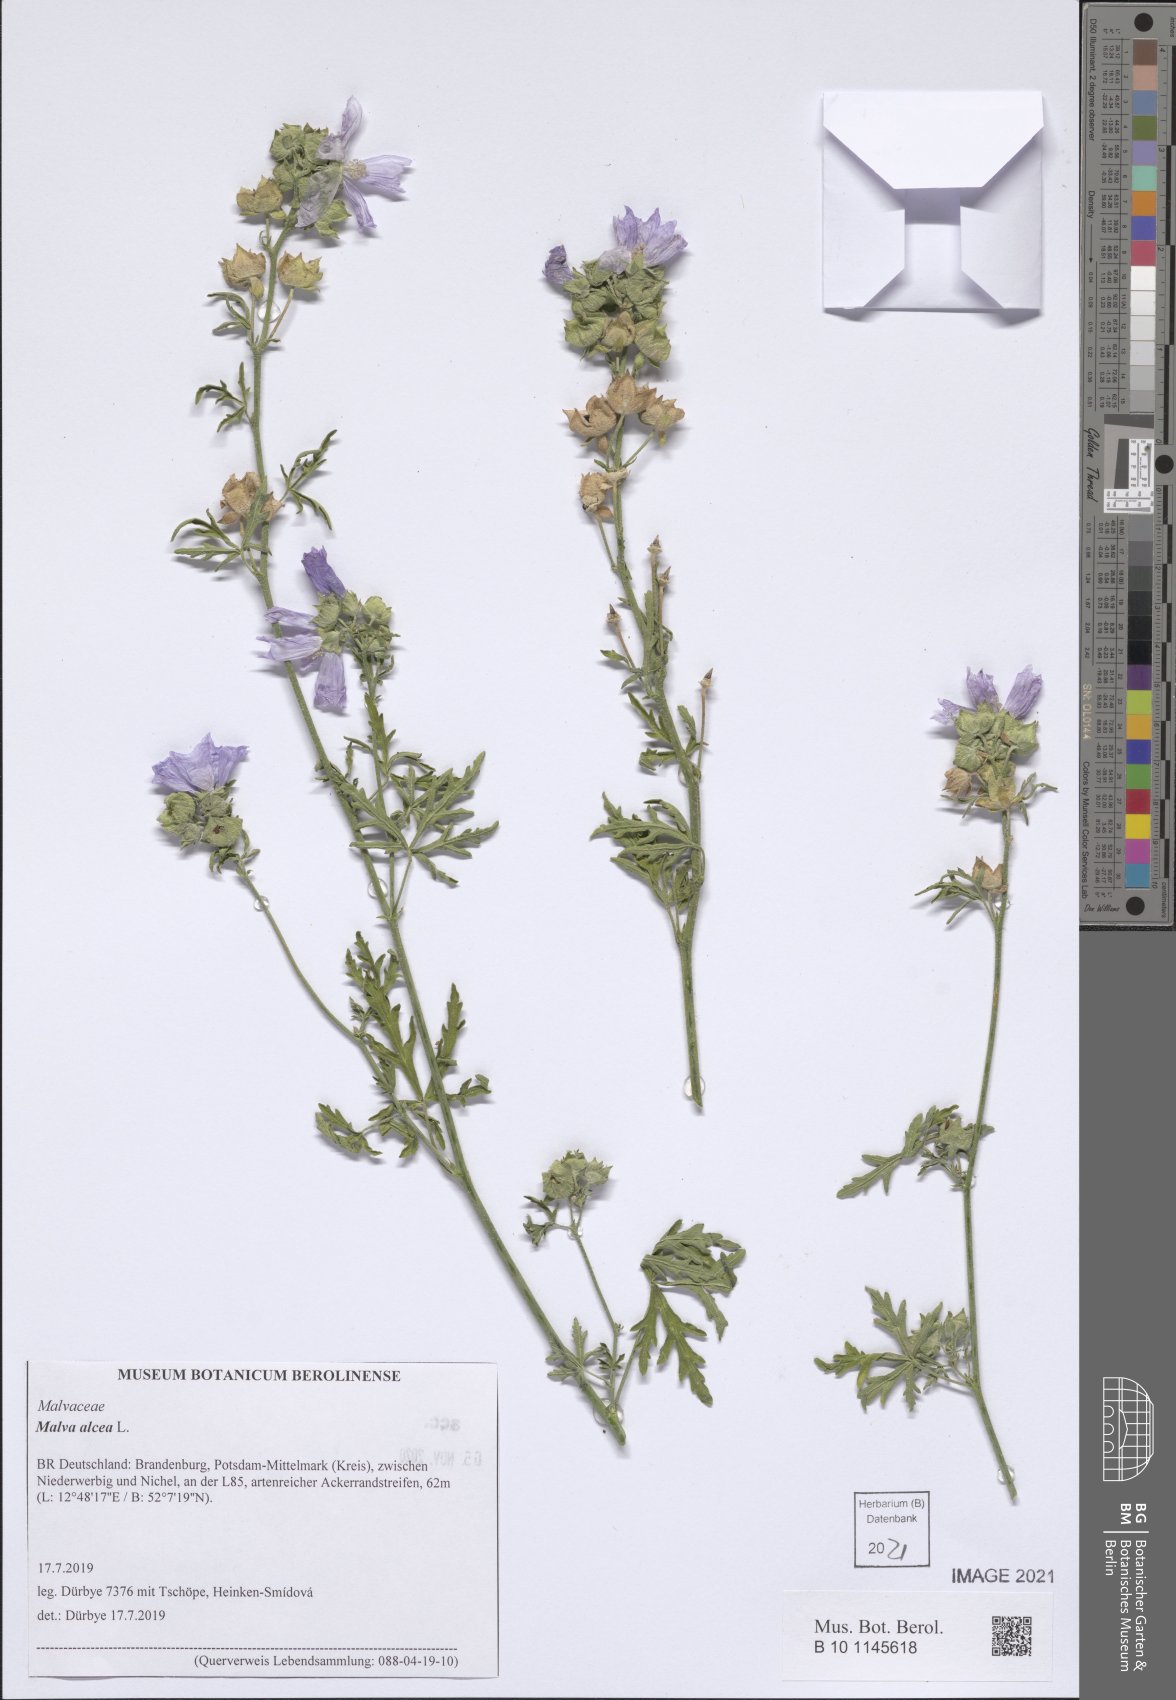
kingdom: Plantae
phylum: Tracheophyta
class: Magnoliopsida
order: Malvales
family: Malvaceae
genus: Malva
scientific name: Malva alcea
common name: Greater musk-mallow
